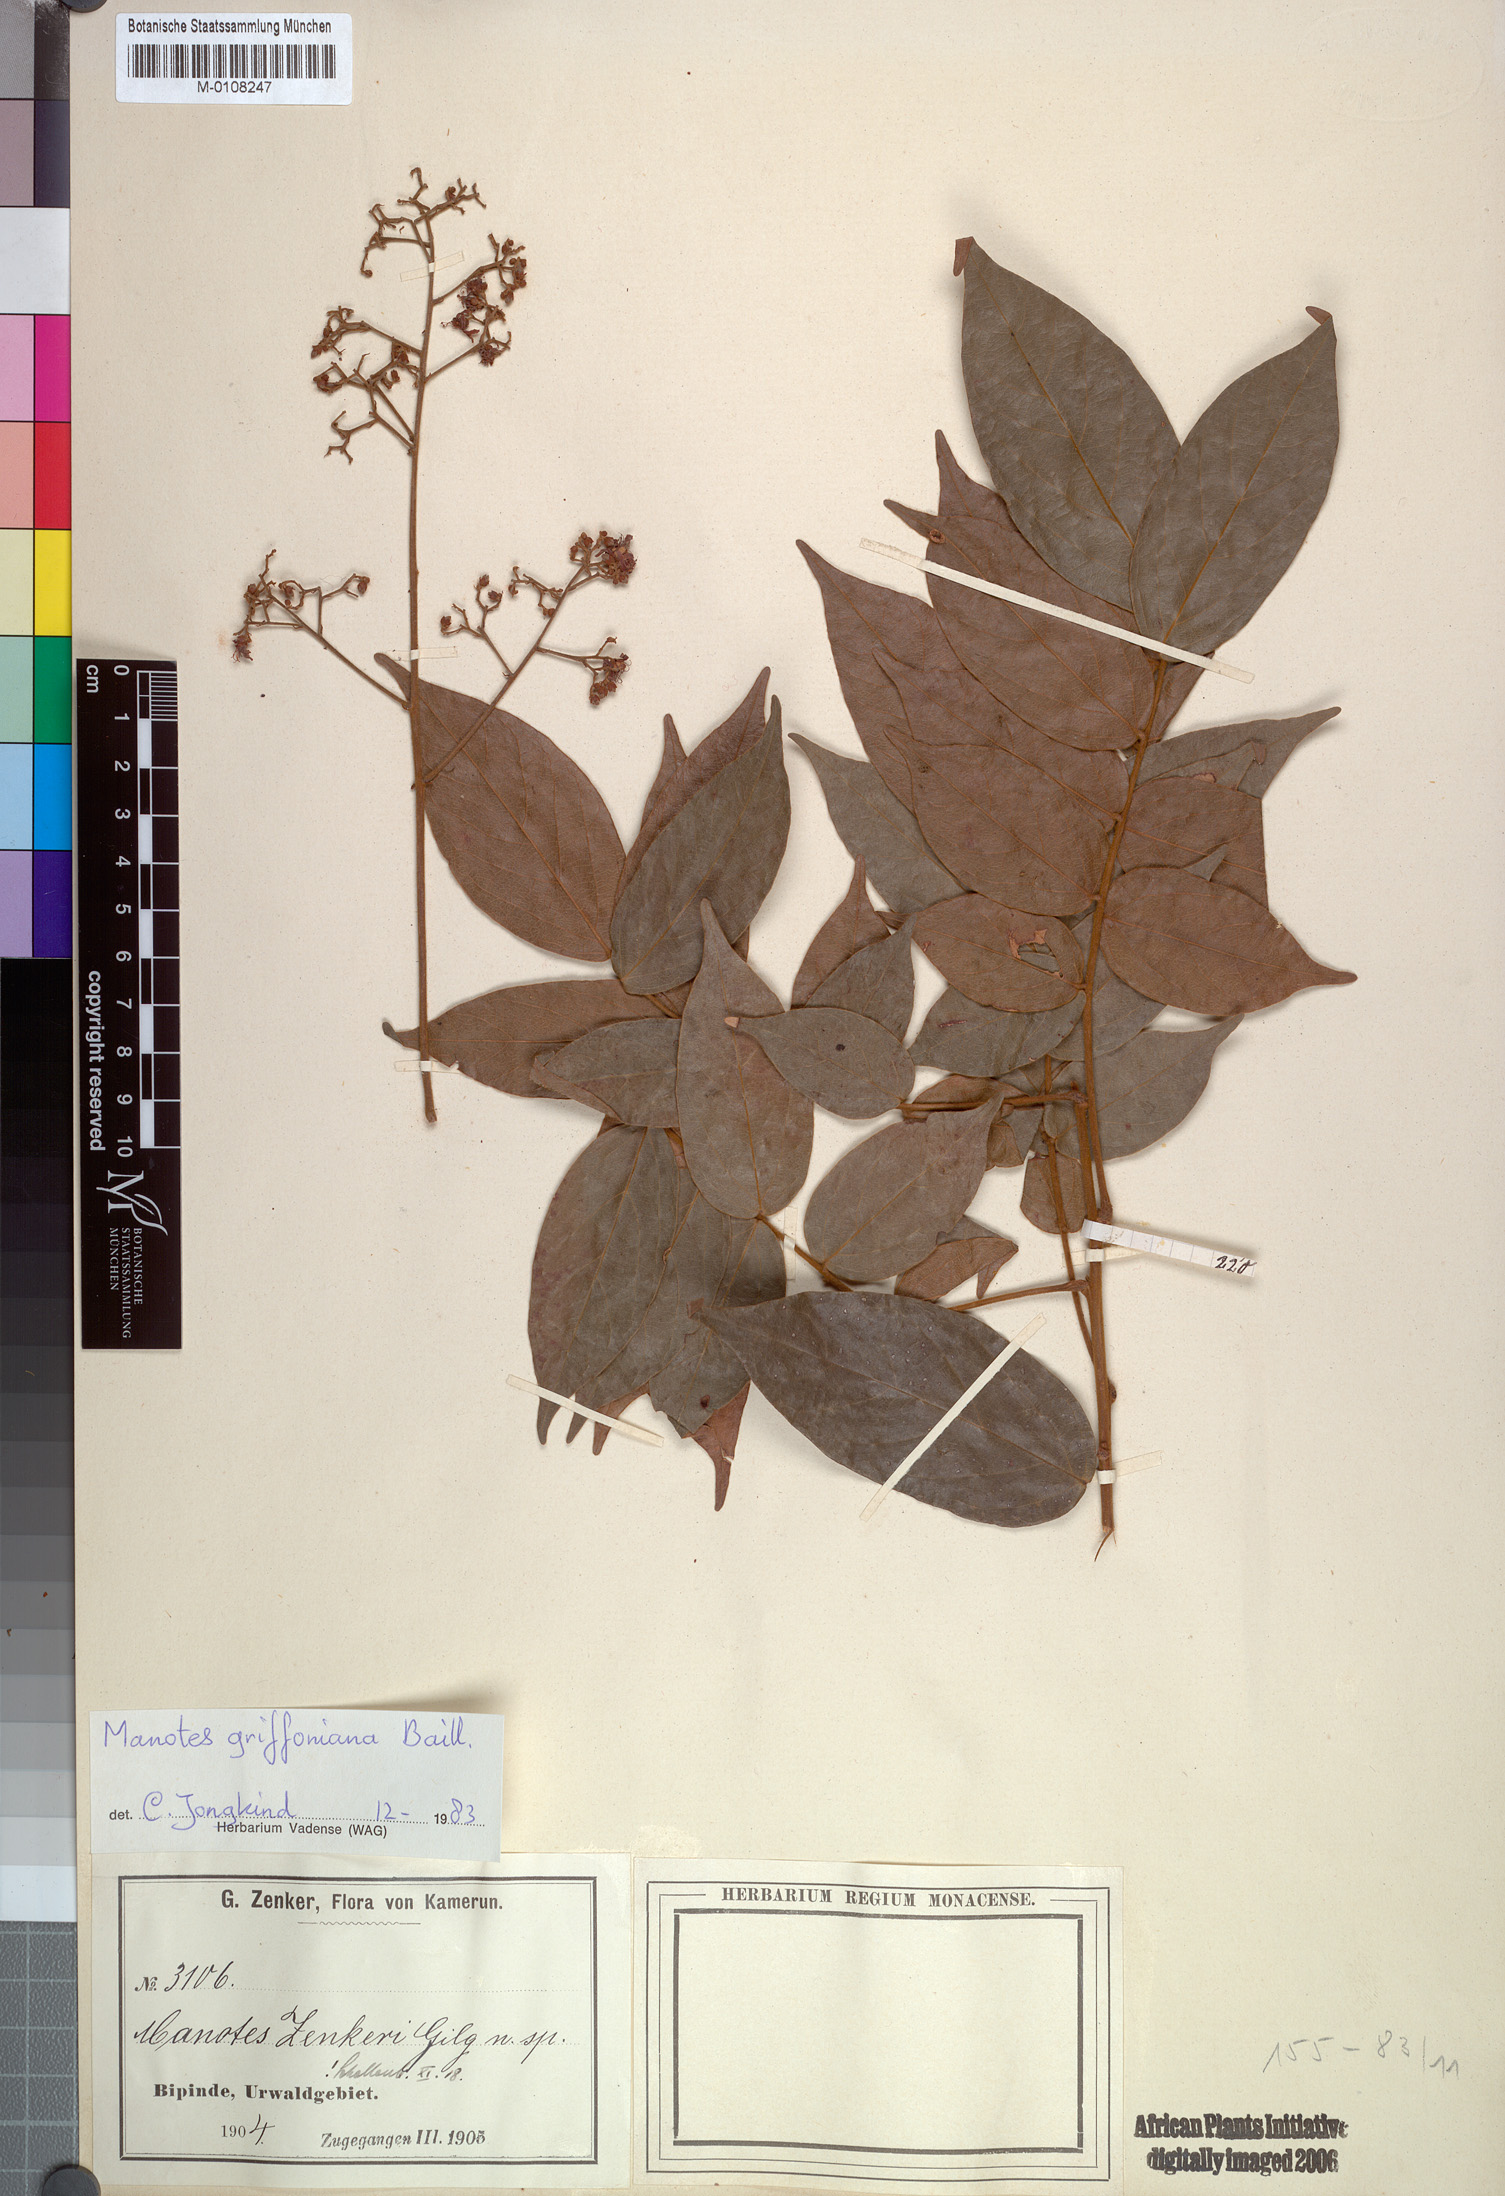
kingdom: Plantae
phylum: Tracheophyta
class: Magnoliopsida
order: Oxalidales
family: Connaraceae
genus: Manotes
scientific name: Manotes griffoniana
